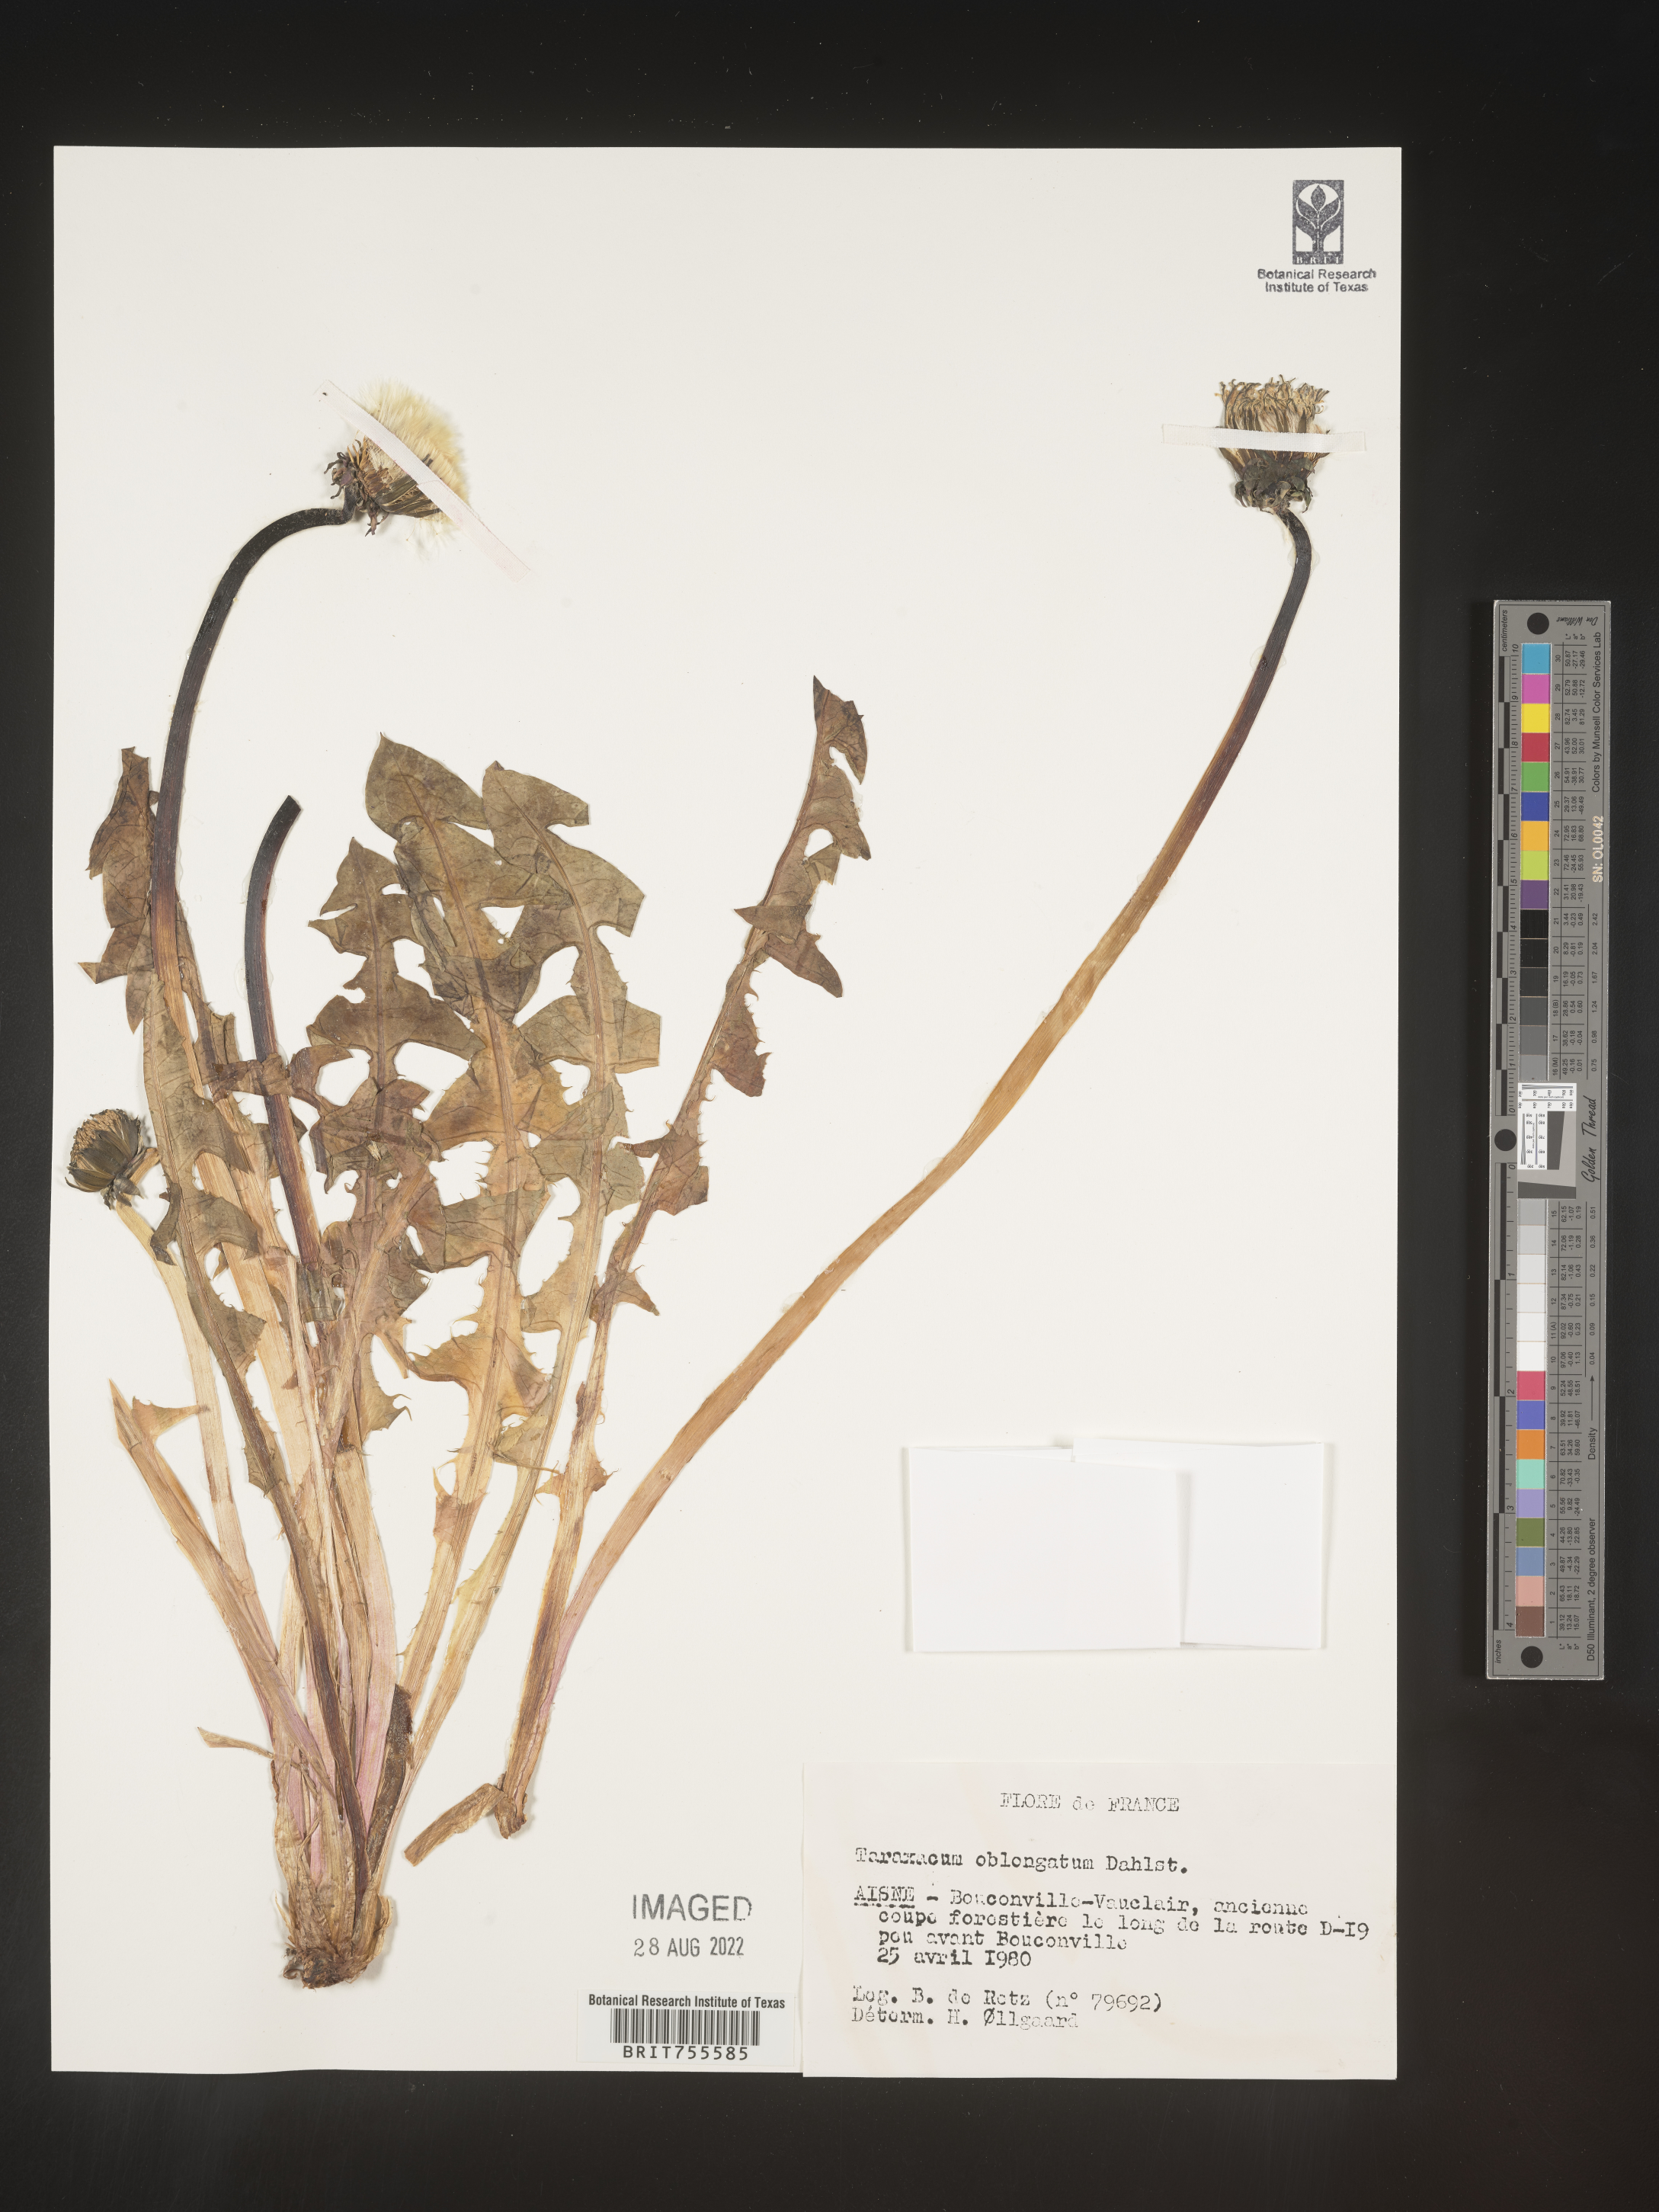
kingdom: Plantae
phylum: Tracheophyta
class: Magnoliopsida
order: Asterales
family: Asteraceae
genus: Taraxacum
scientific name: Taraxacum
